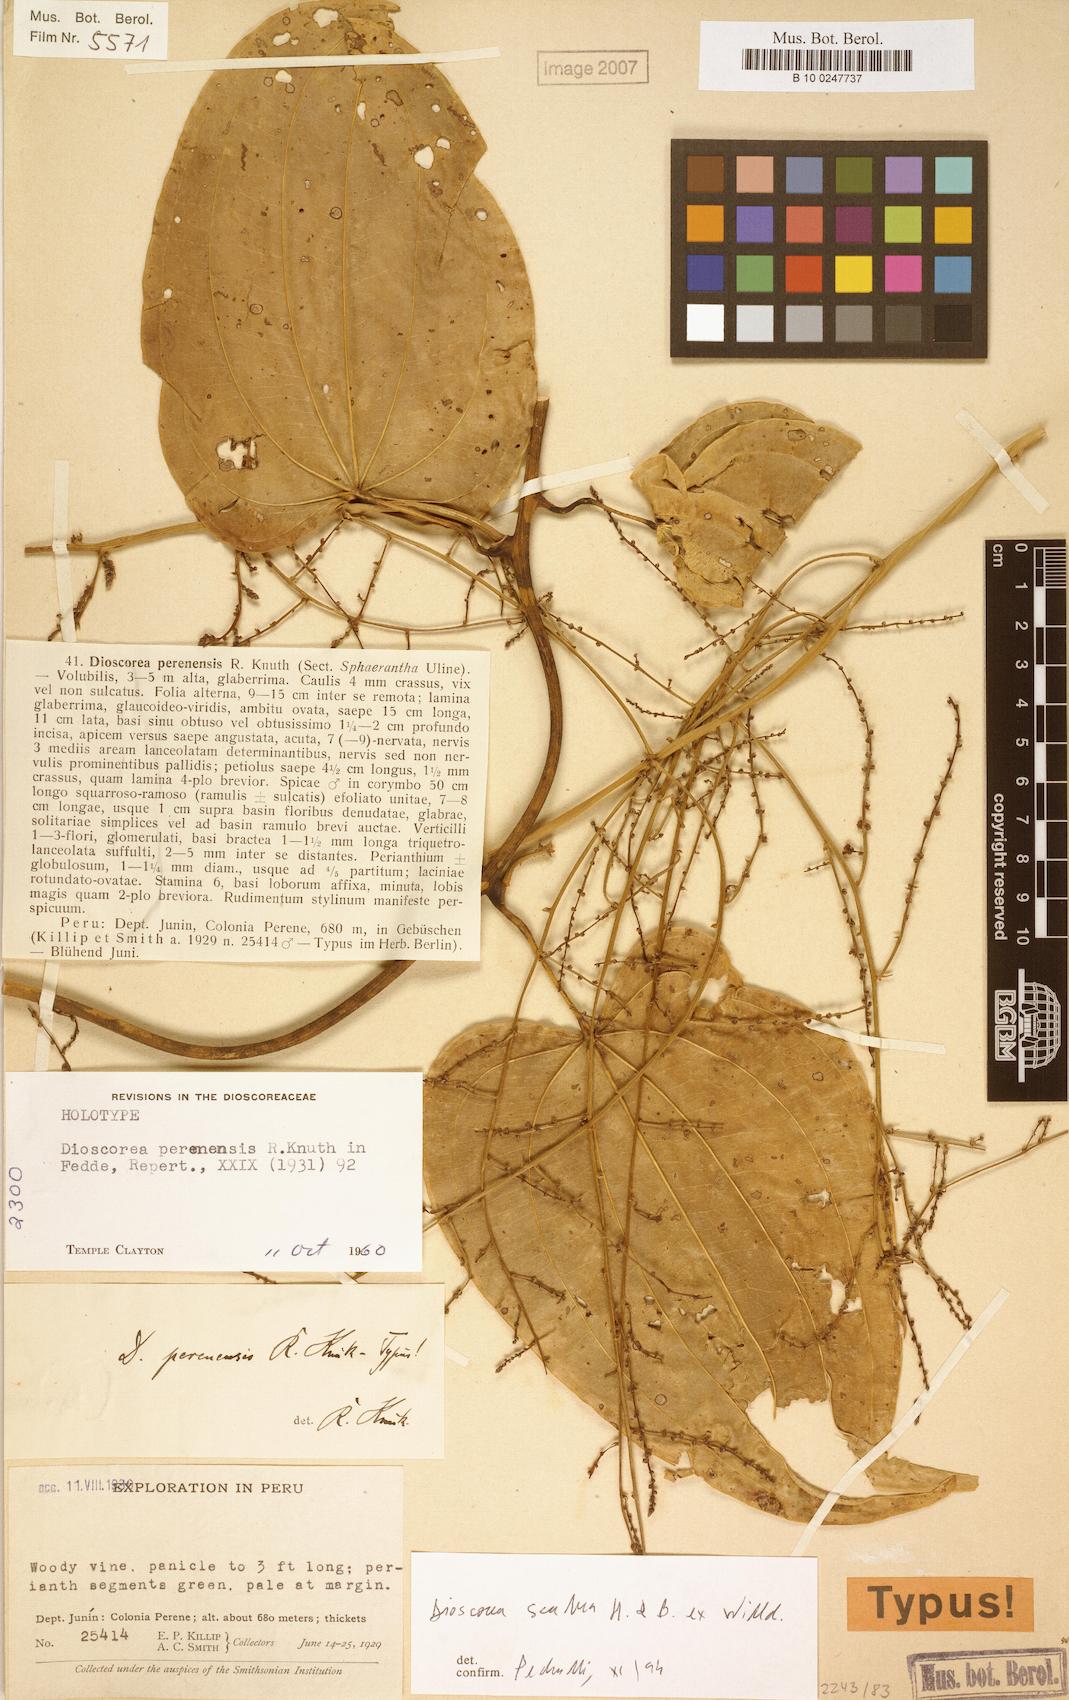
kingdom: Plantae
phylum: Tracheophyta
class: Liliopsida
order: Dioscoreales
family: Dioscoreaceae
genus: Dioscorea
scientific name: Dioscorea scabra
